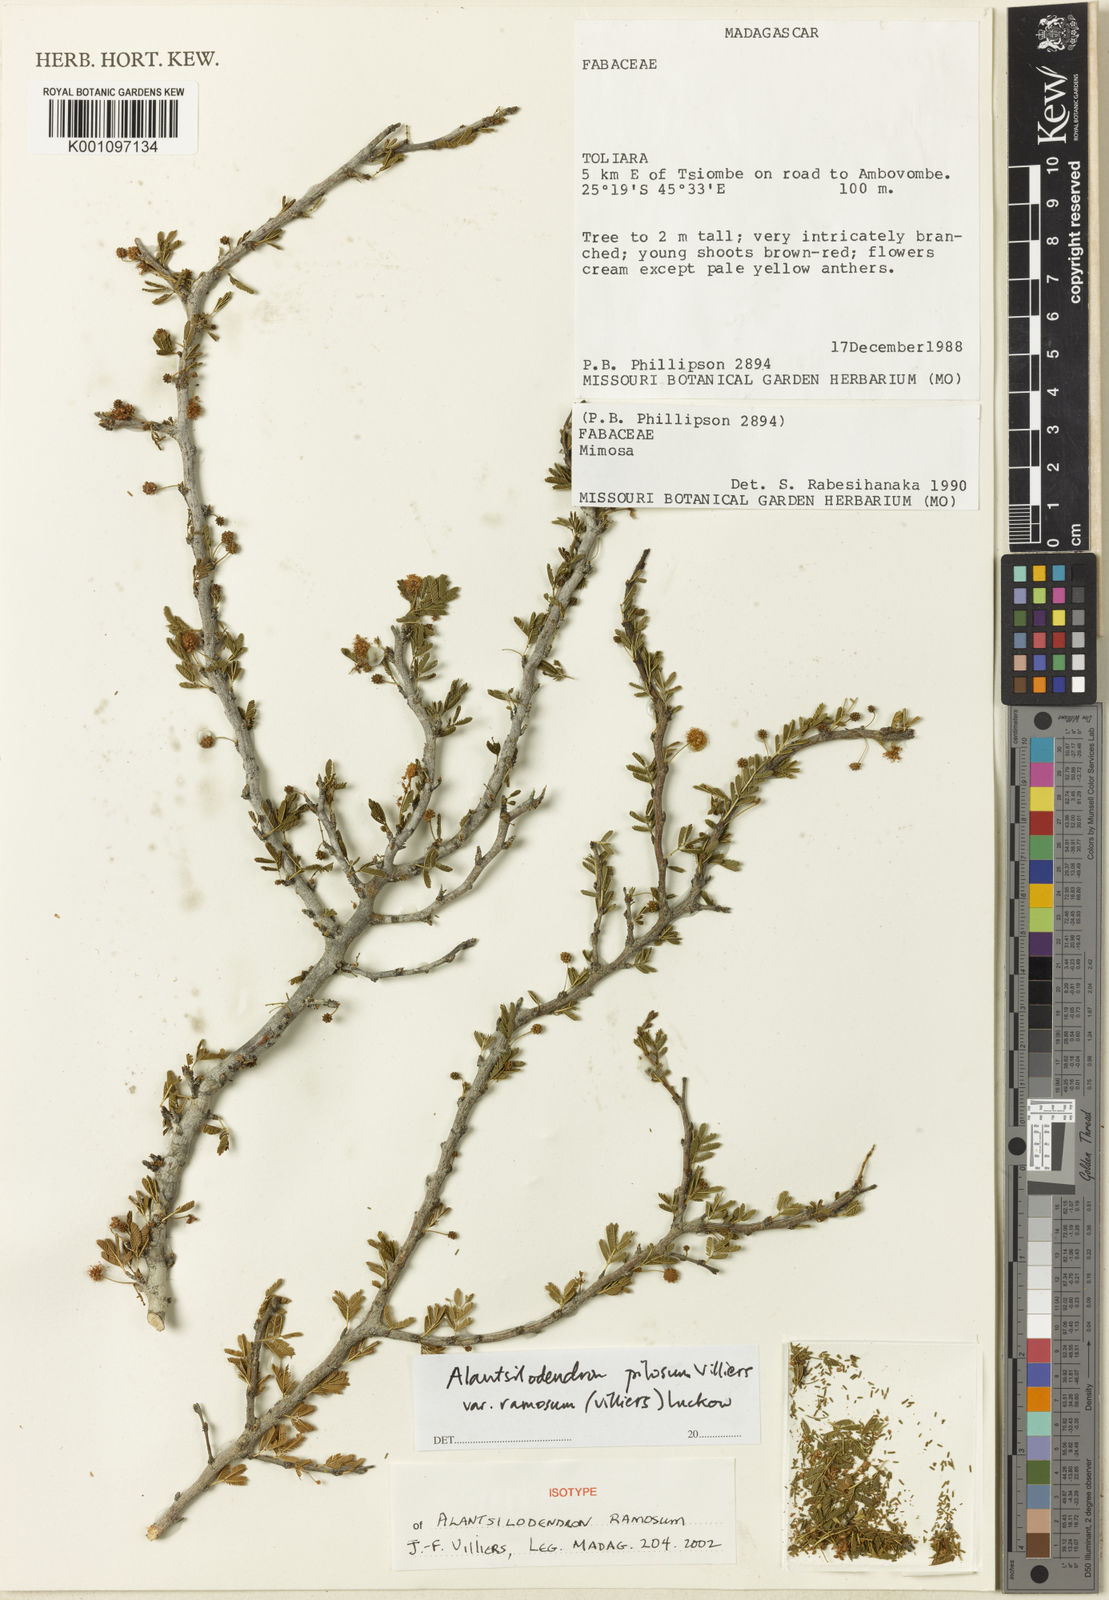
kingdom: Plantae
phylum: Tracheophyta
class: Magnoliopsida
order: Fabales
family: Fabaceae
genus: Alantsilodendron
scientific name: Alantsilodendron pilosum
